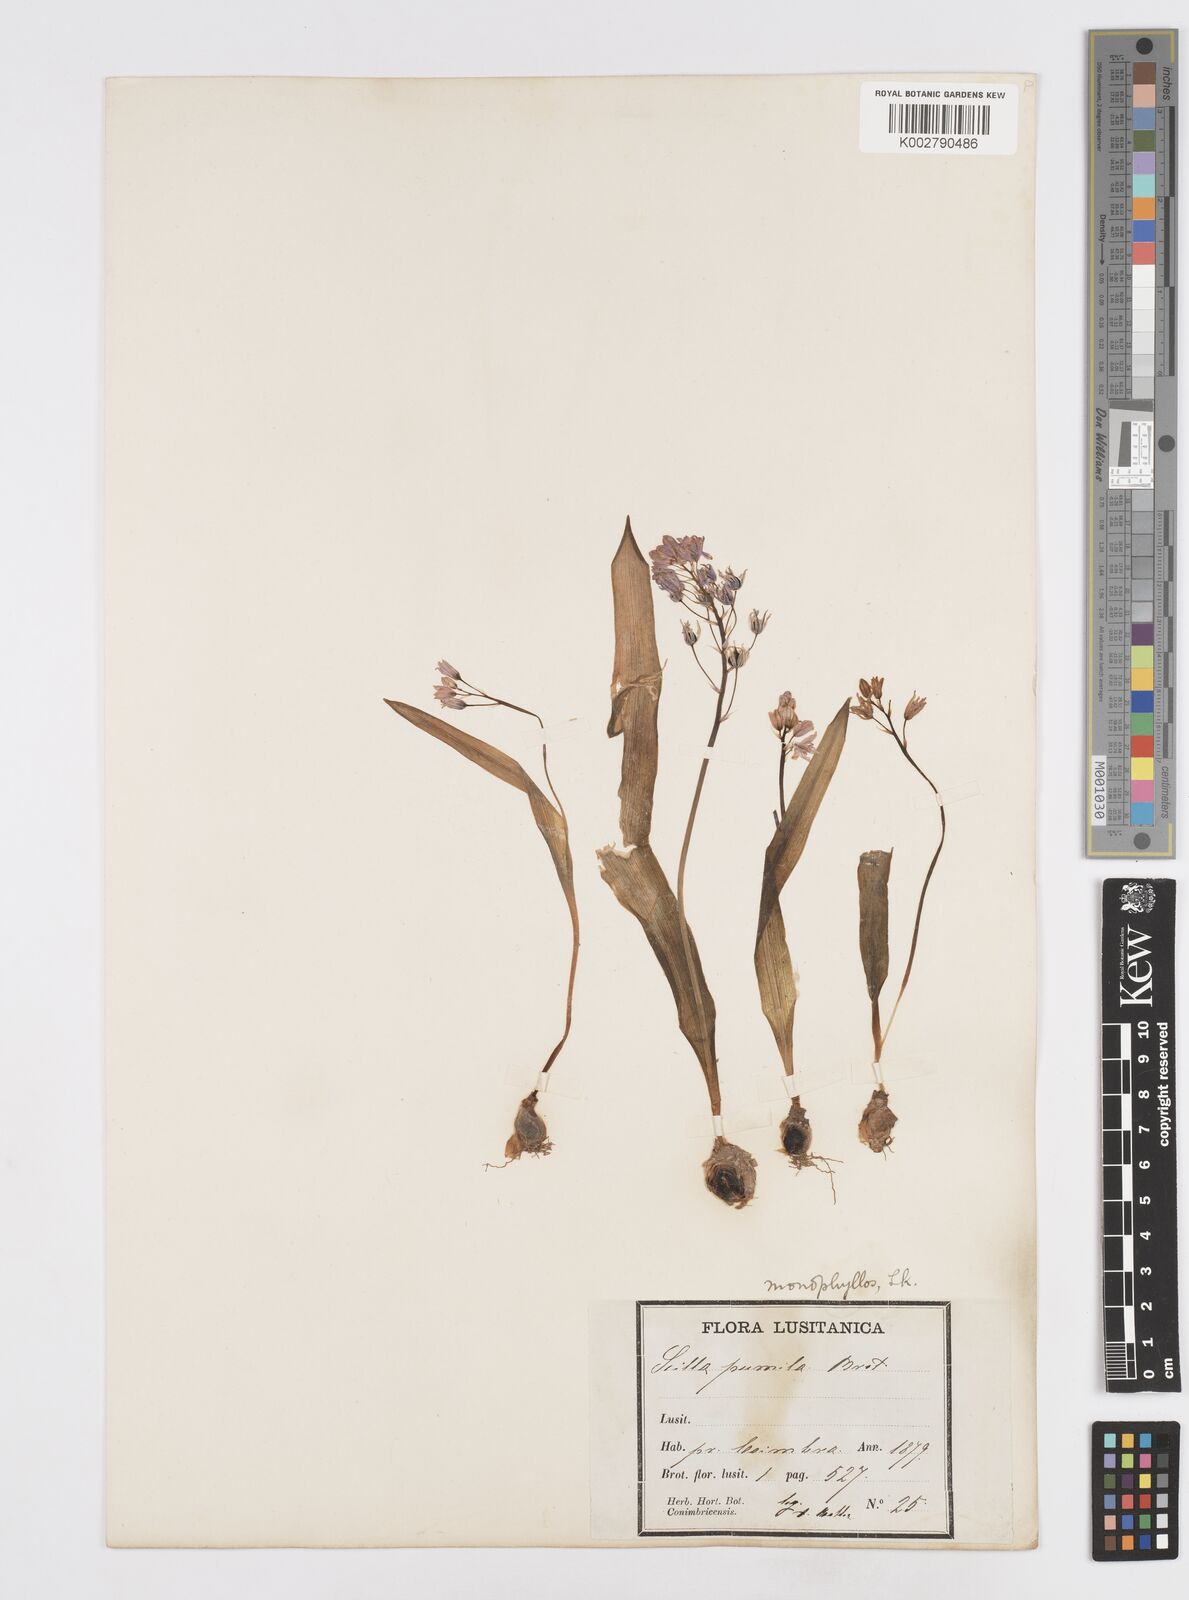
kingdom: Plantae
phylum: Tracheophyta
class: Liliopsida
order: Asparagales
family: Asparagaceae
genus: Scilla
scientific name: Scilla monophyllos
